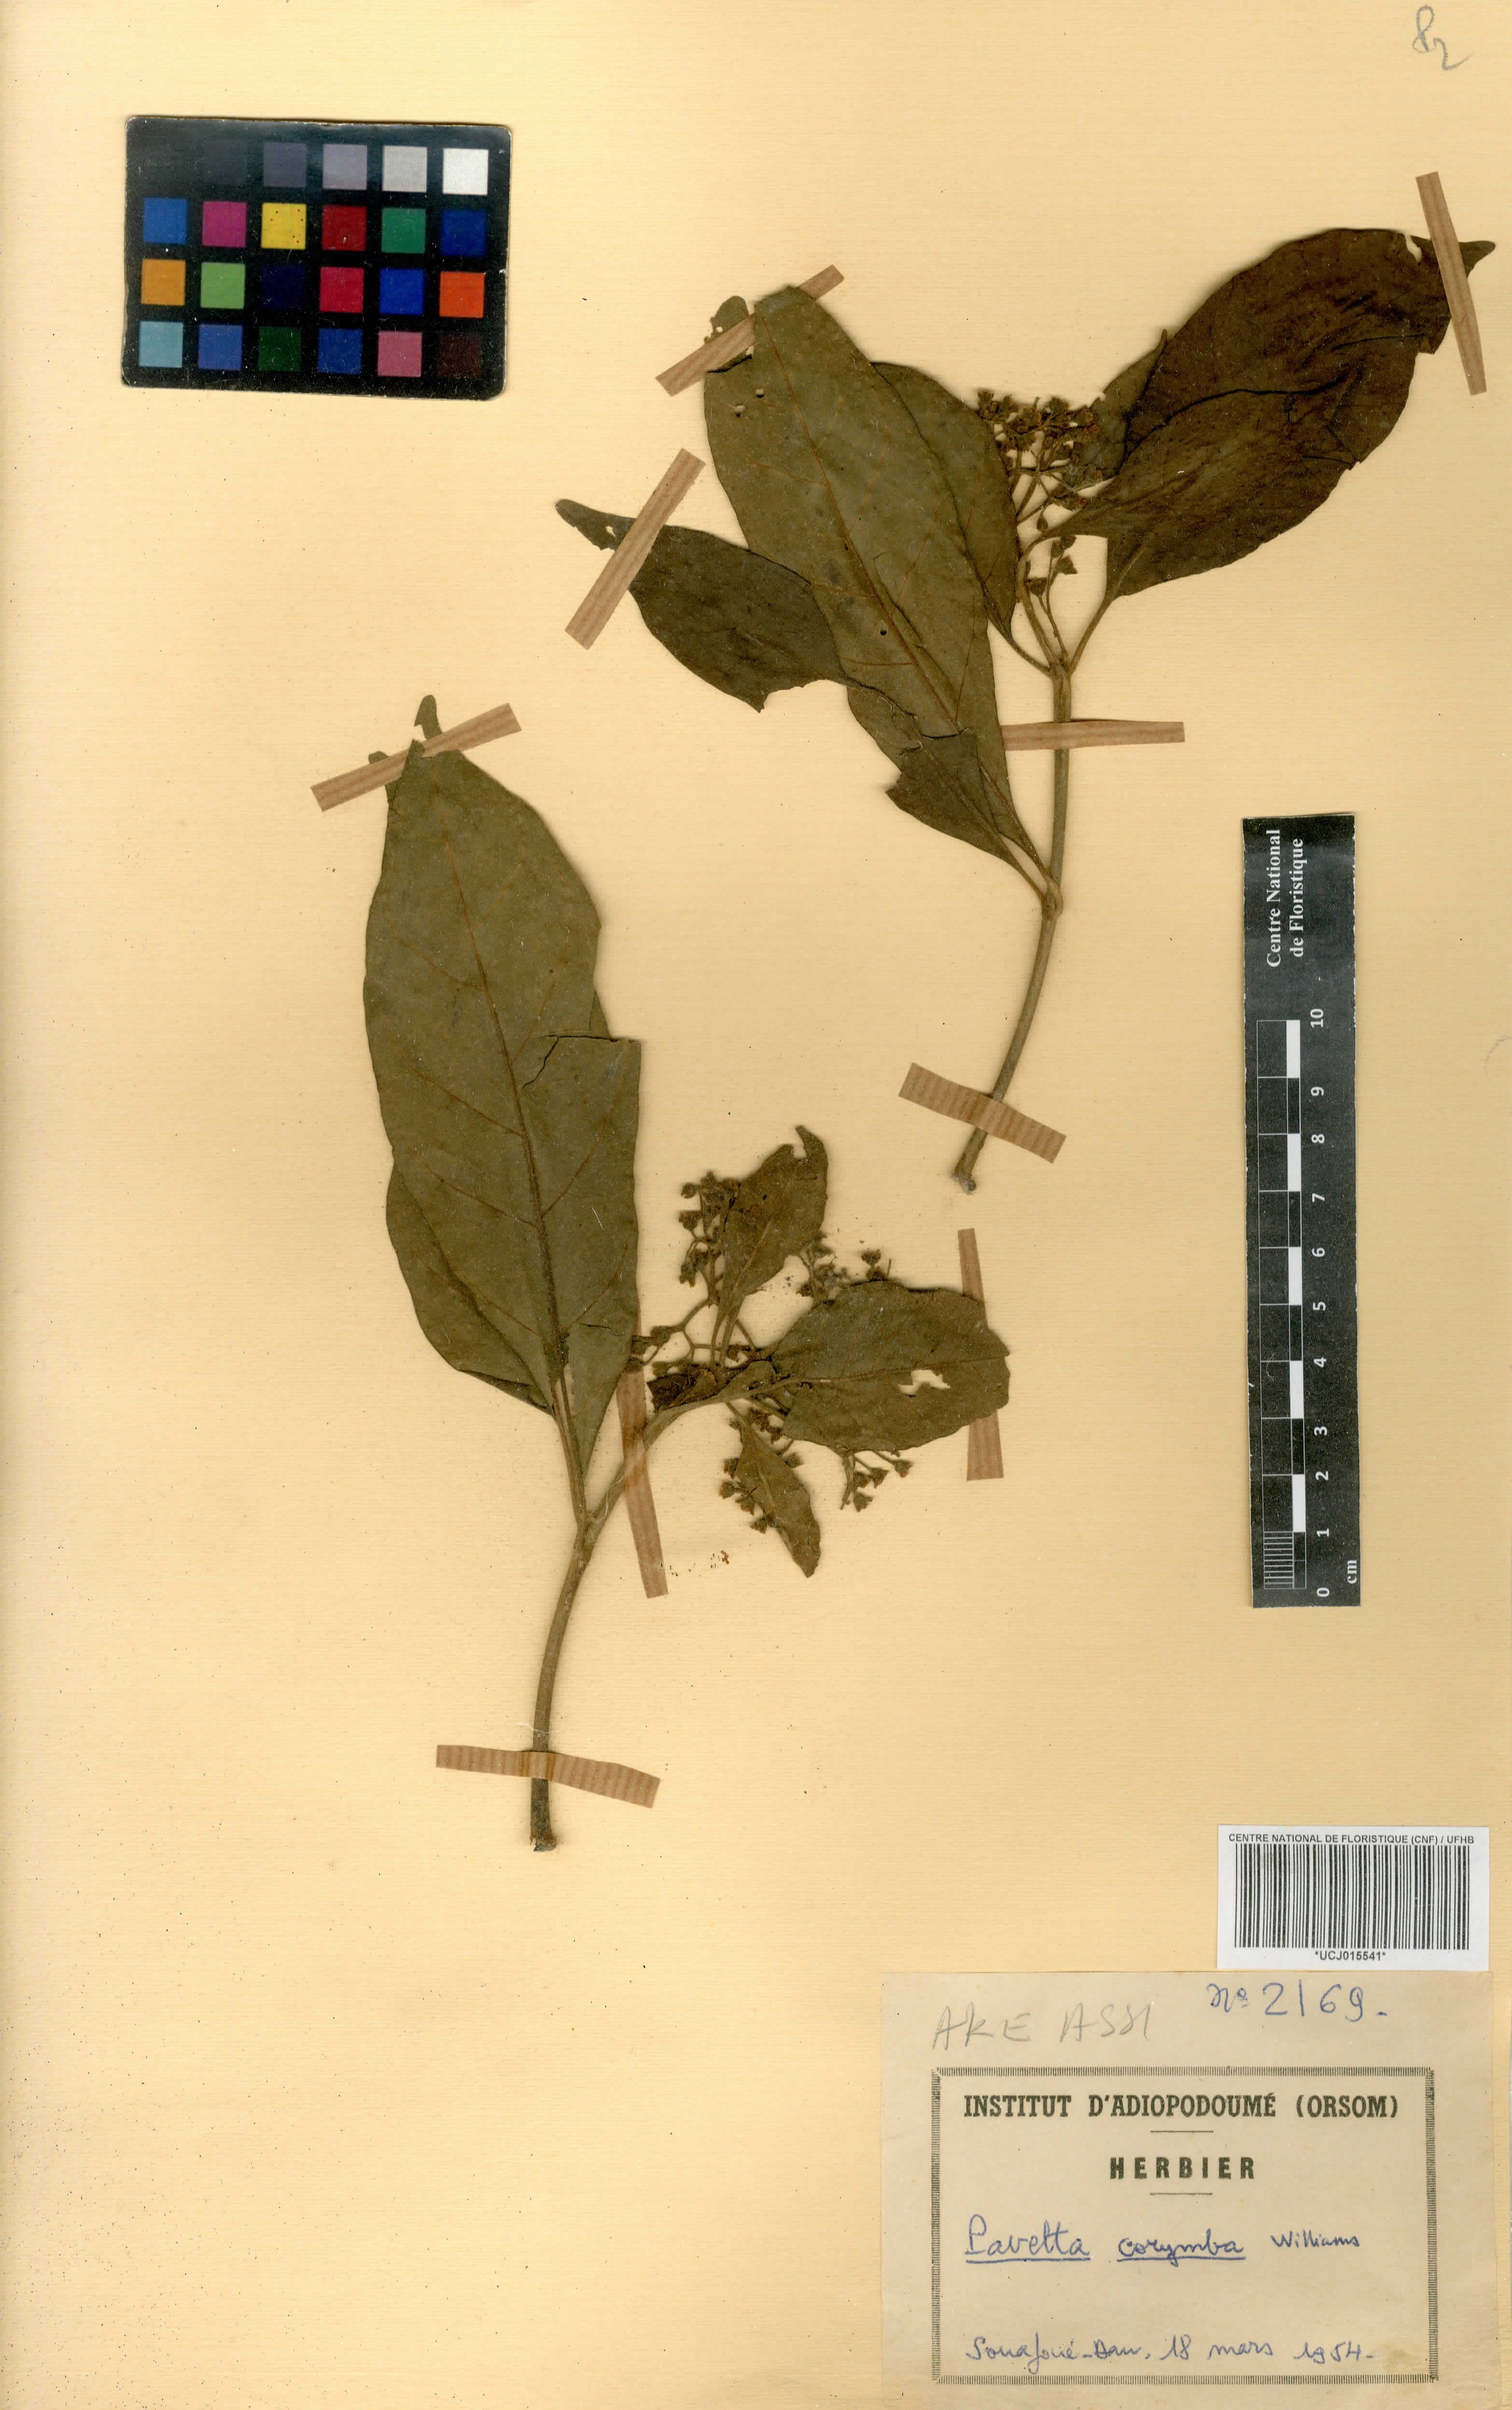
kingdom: Plantae
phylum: Tracheophyta
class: Magnoliopsida
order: Gentianales
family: Rubiaceae
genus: Pavetta
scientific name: Pavetta corymbosa
